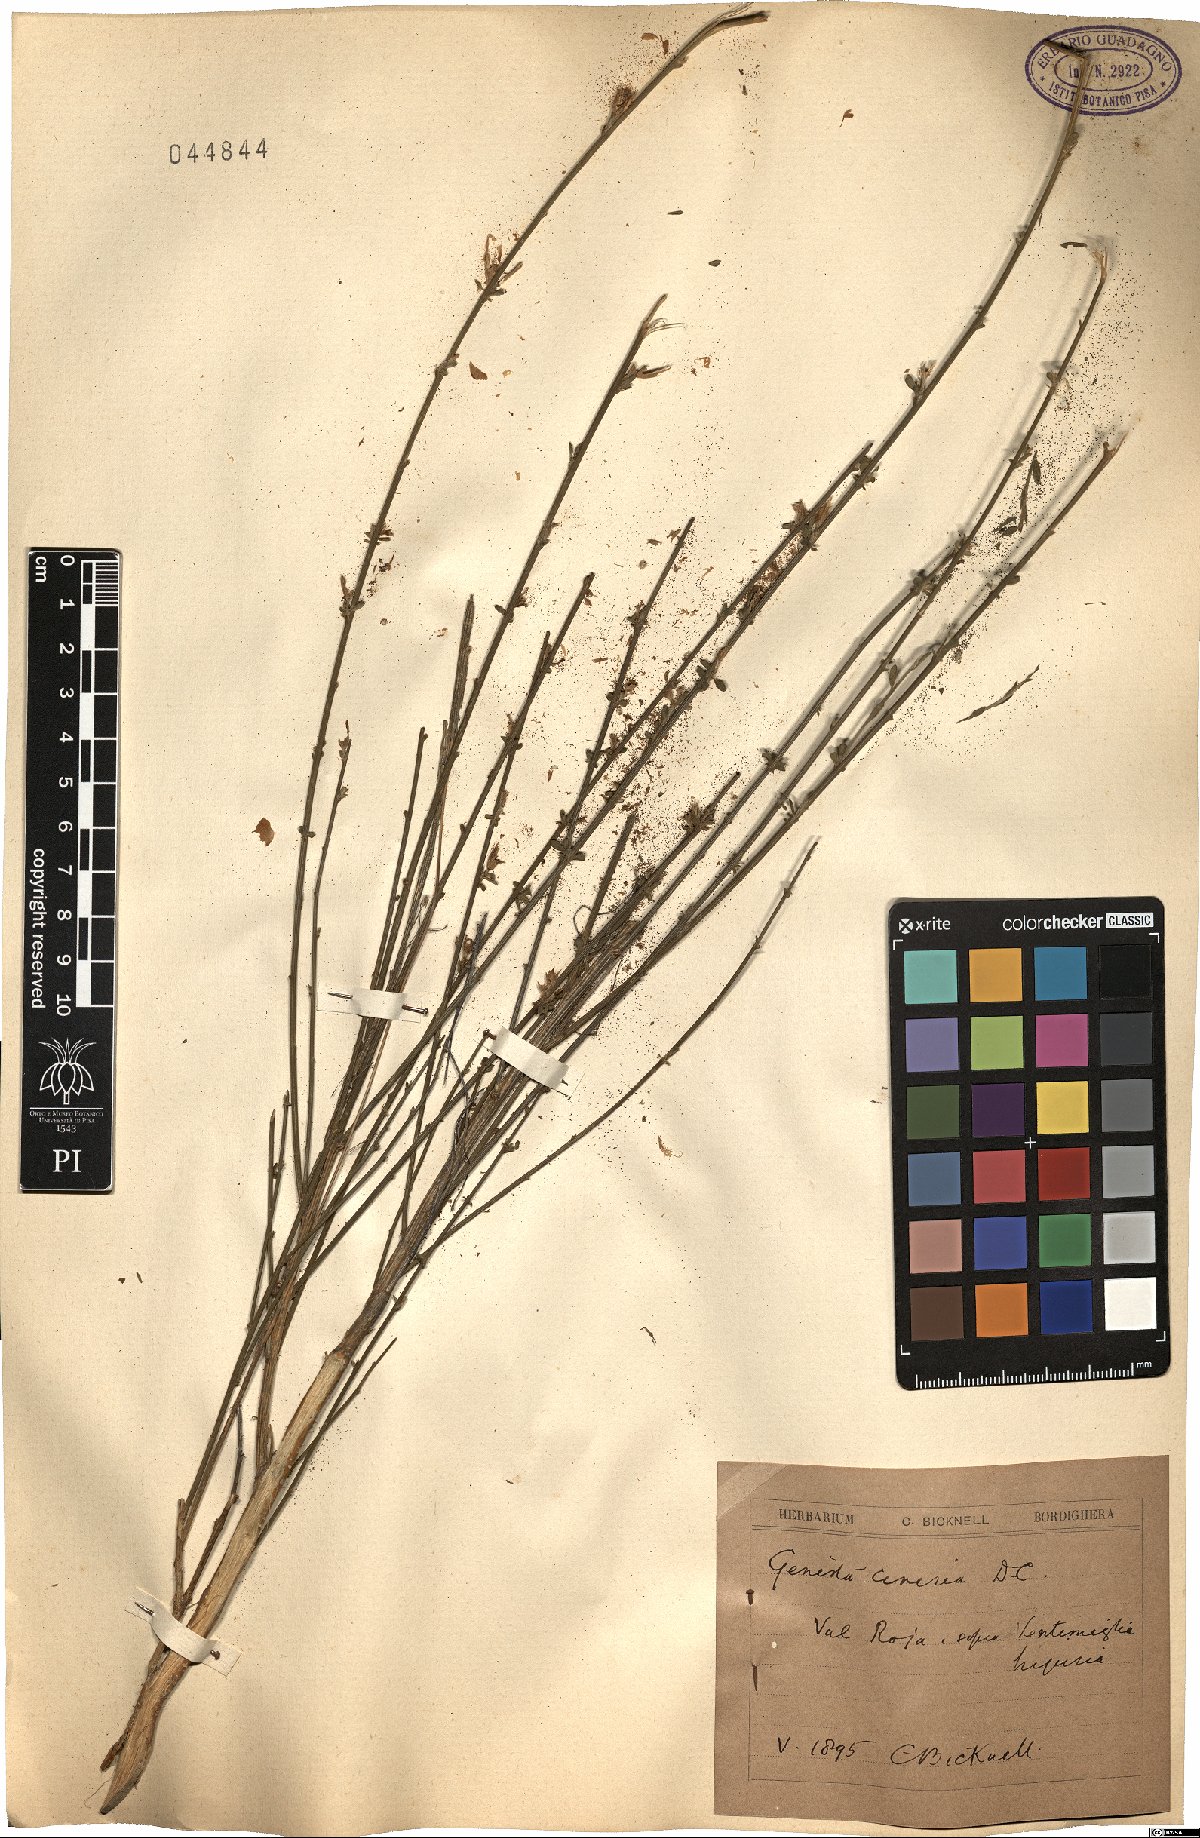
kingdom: Plantae
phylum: Tracheophyta
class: Magnoliopsida
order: Fabales
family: Fabaceae
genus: Genista
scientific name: Genista cinerea
